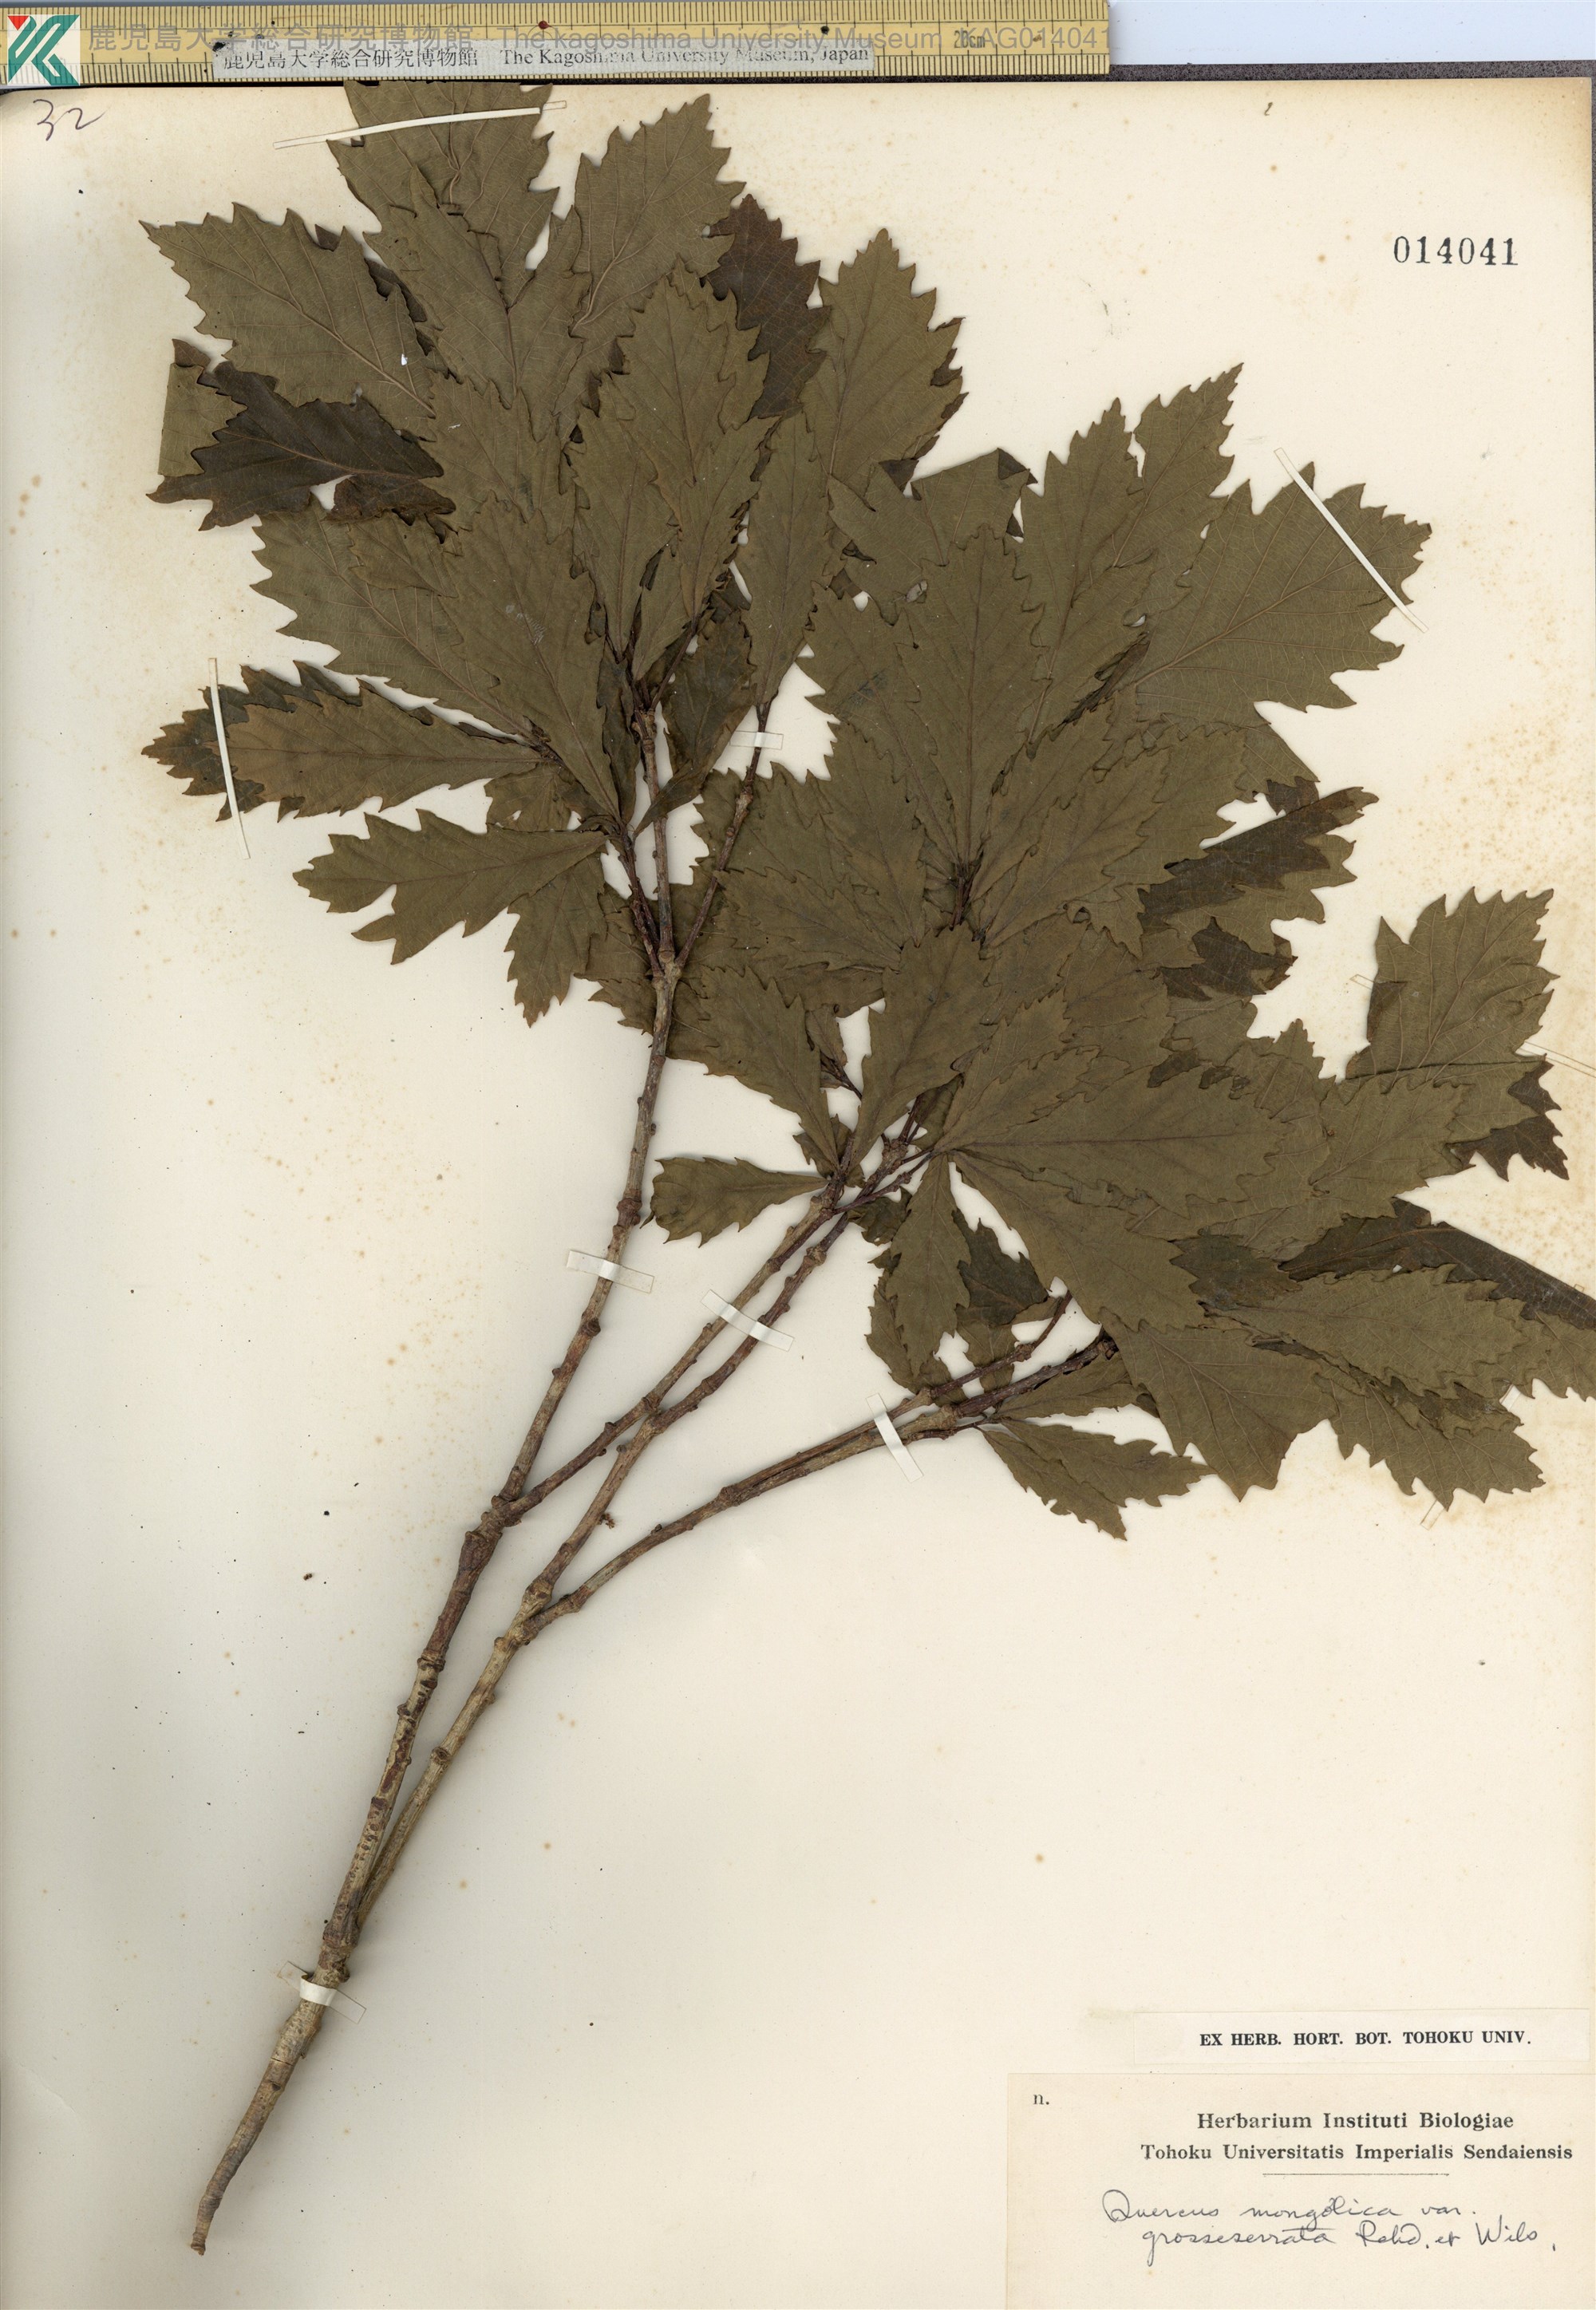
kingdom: Plantae
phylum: Tracheophyta
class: Magnoliopsida
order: Fagales
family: Fagaceae
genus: Quercus
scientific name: Quercus crispula
